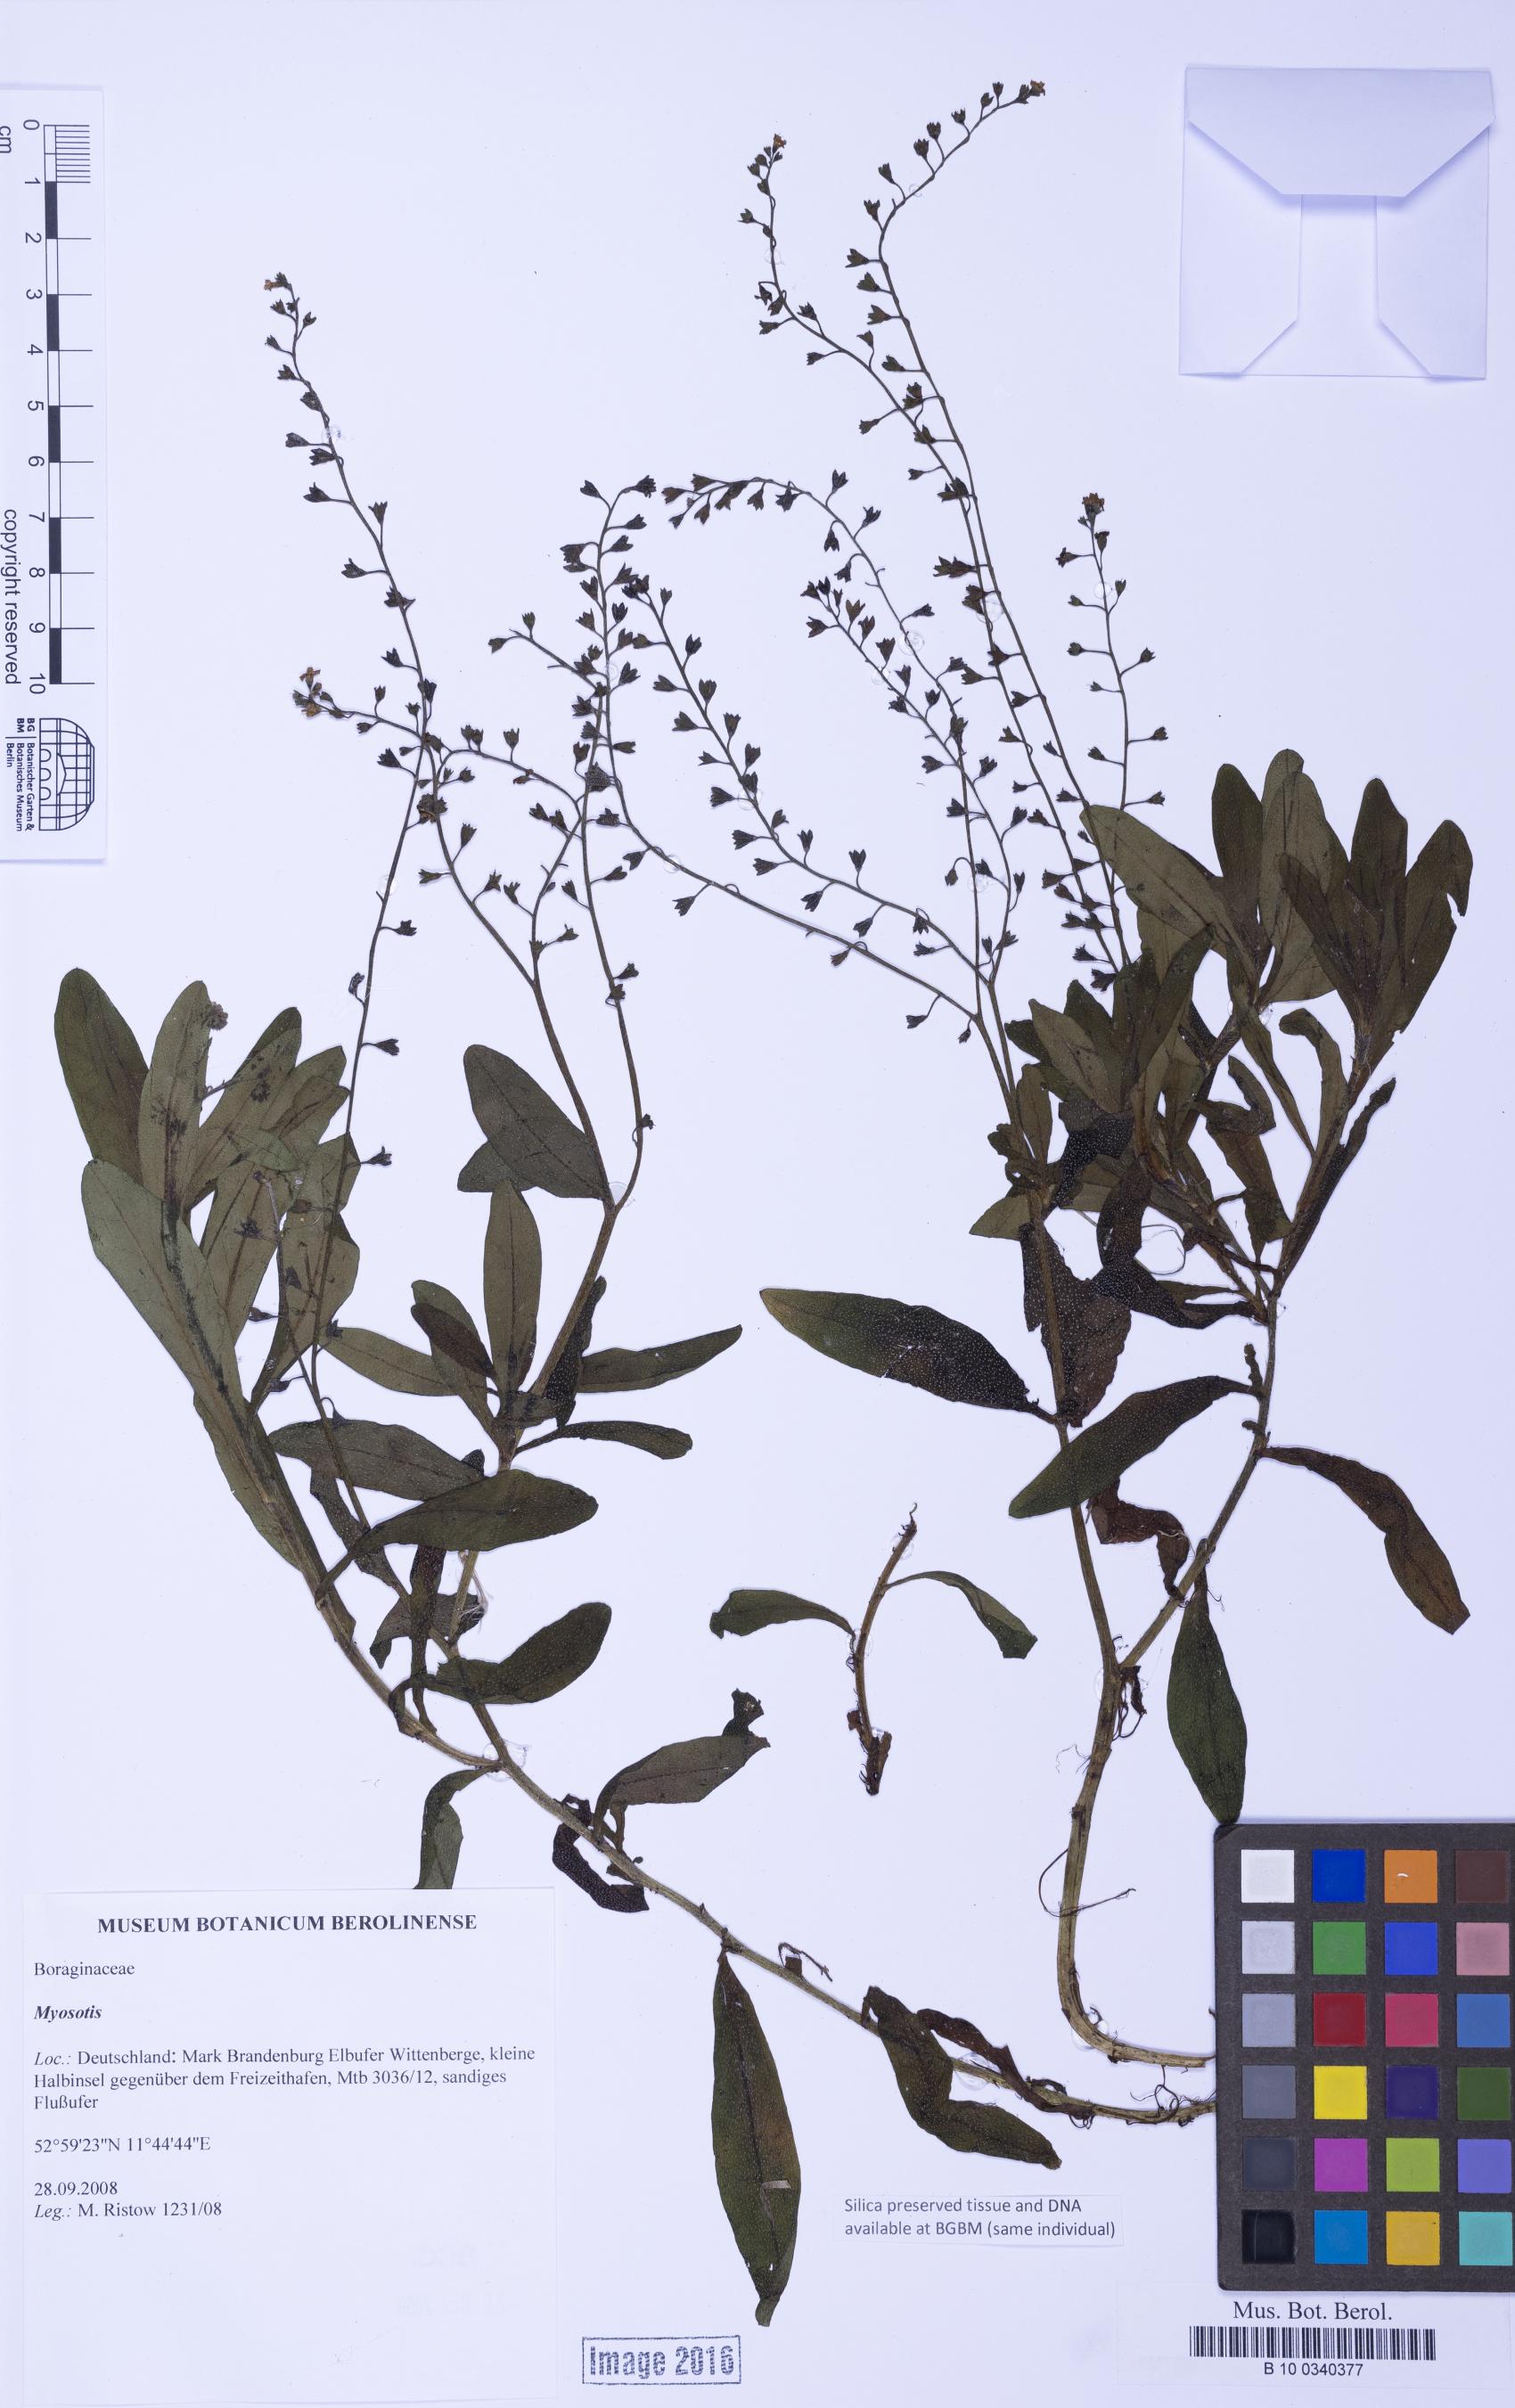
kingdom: Plantae
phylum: Tracheophyta
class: Magnoliopsida
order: Boraginales
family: Boraginaceae
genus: Myosotis
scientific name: Myosotis
